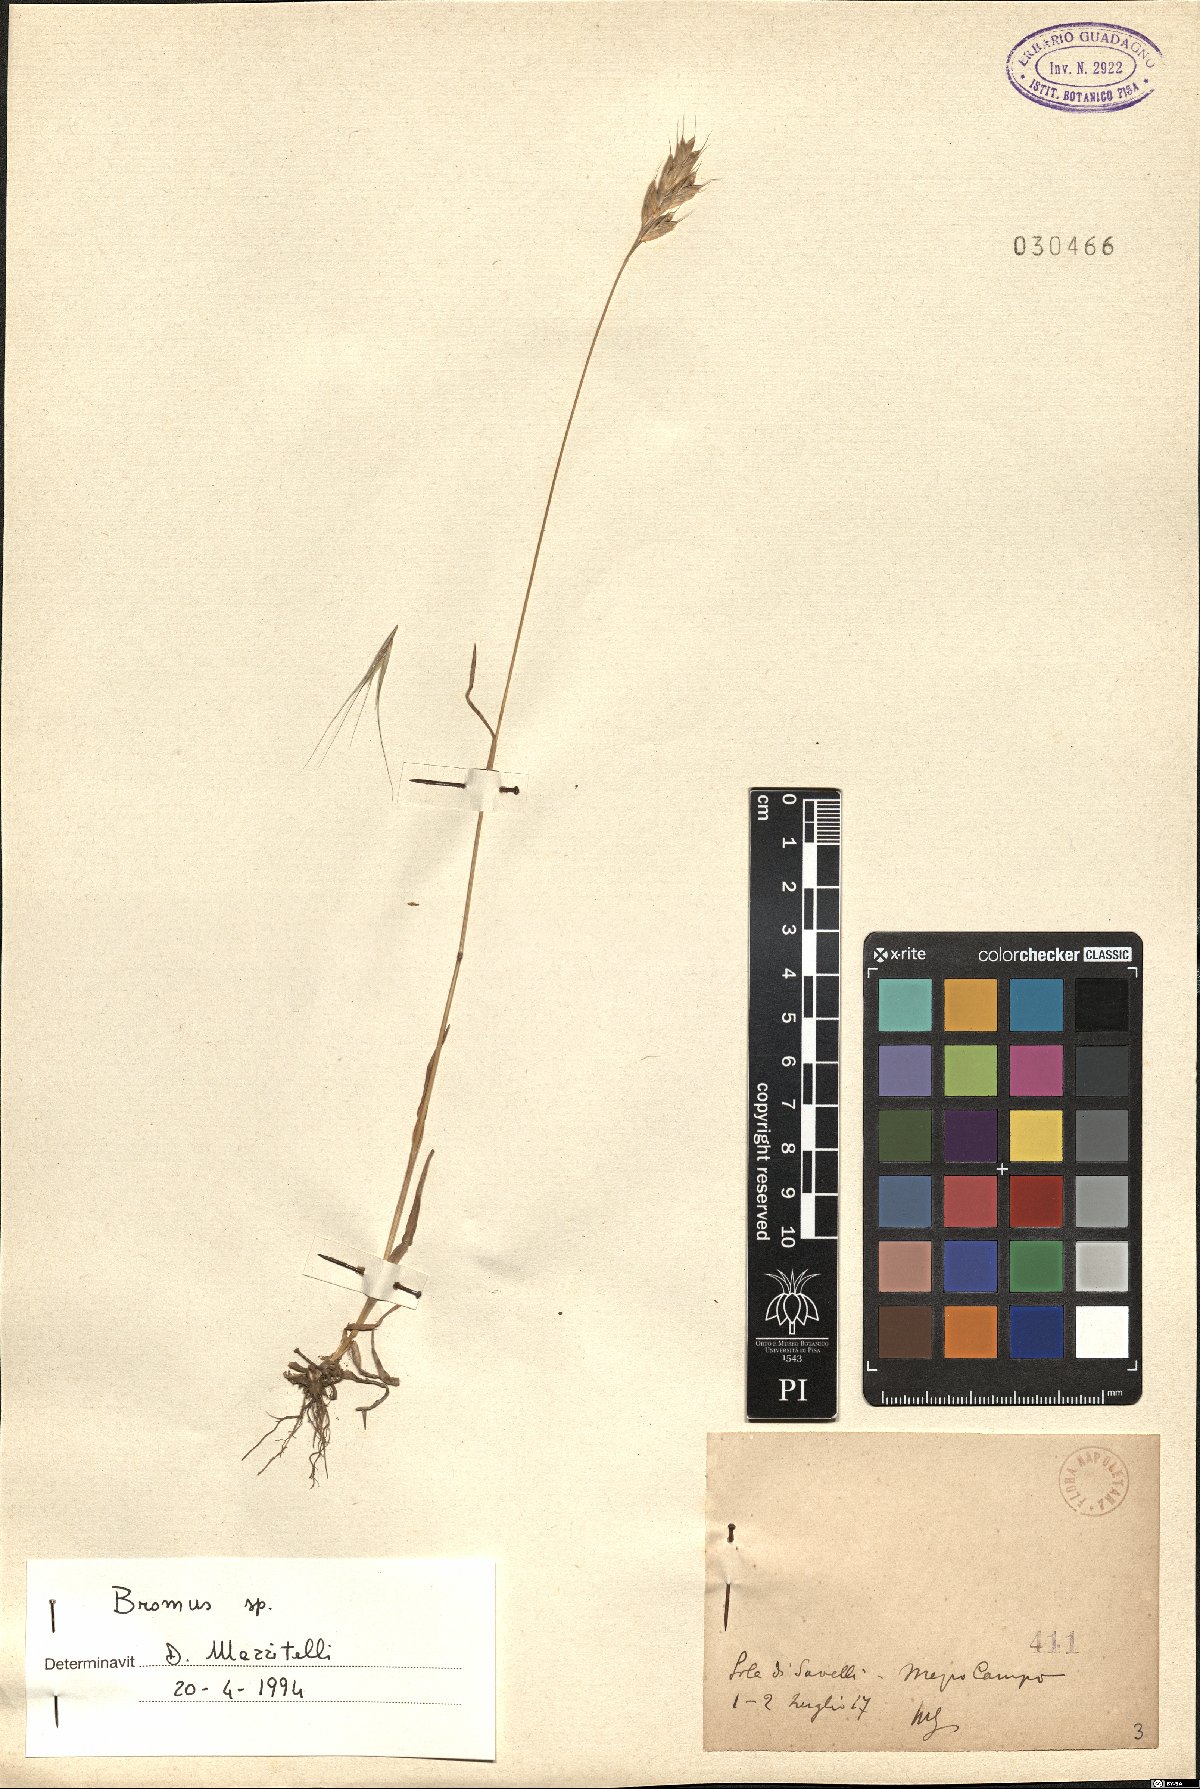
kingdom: Plantae
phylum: Tracheophyta
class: Liliopsida
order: Poales
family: Poaceae
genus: Bromus
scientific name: Bromus
